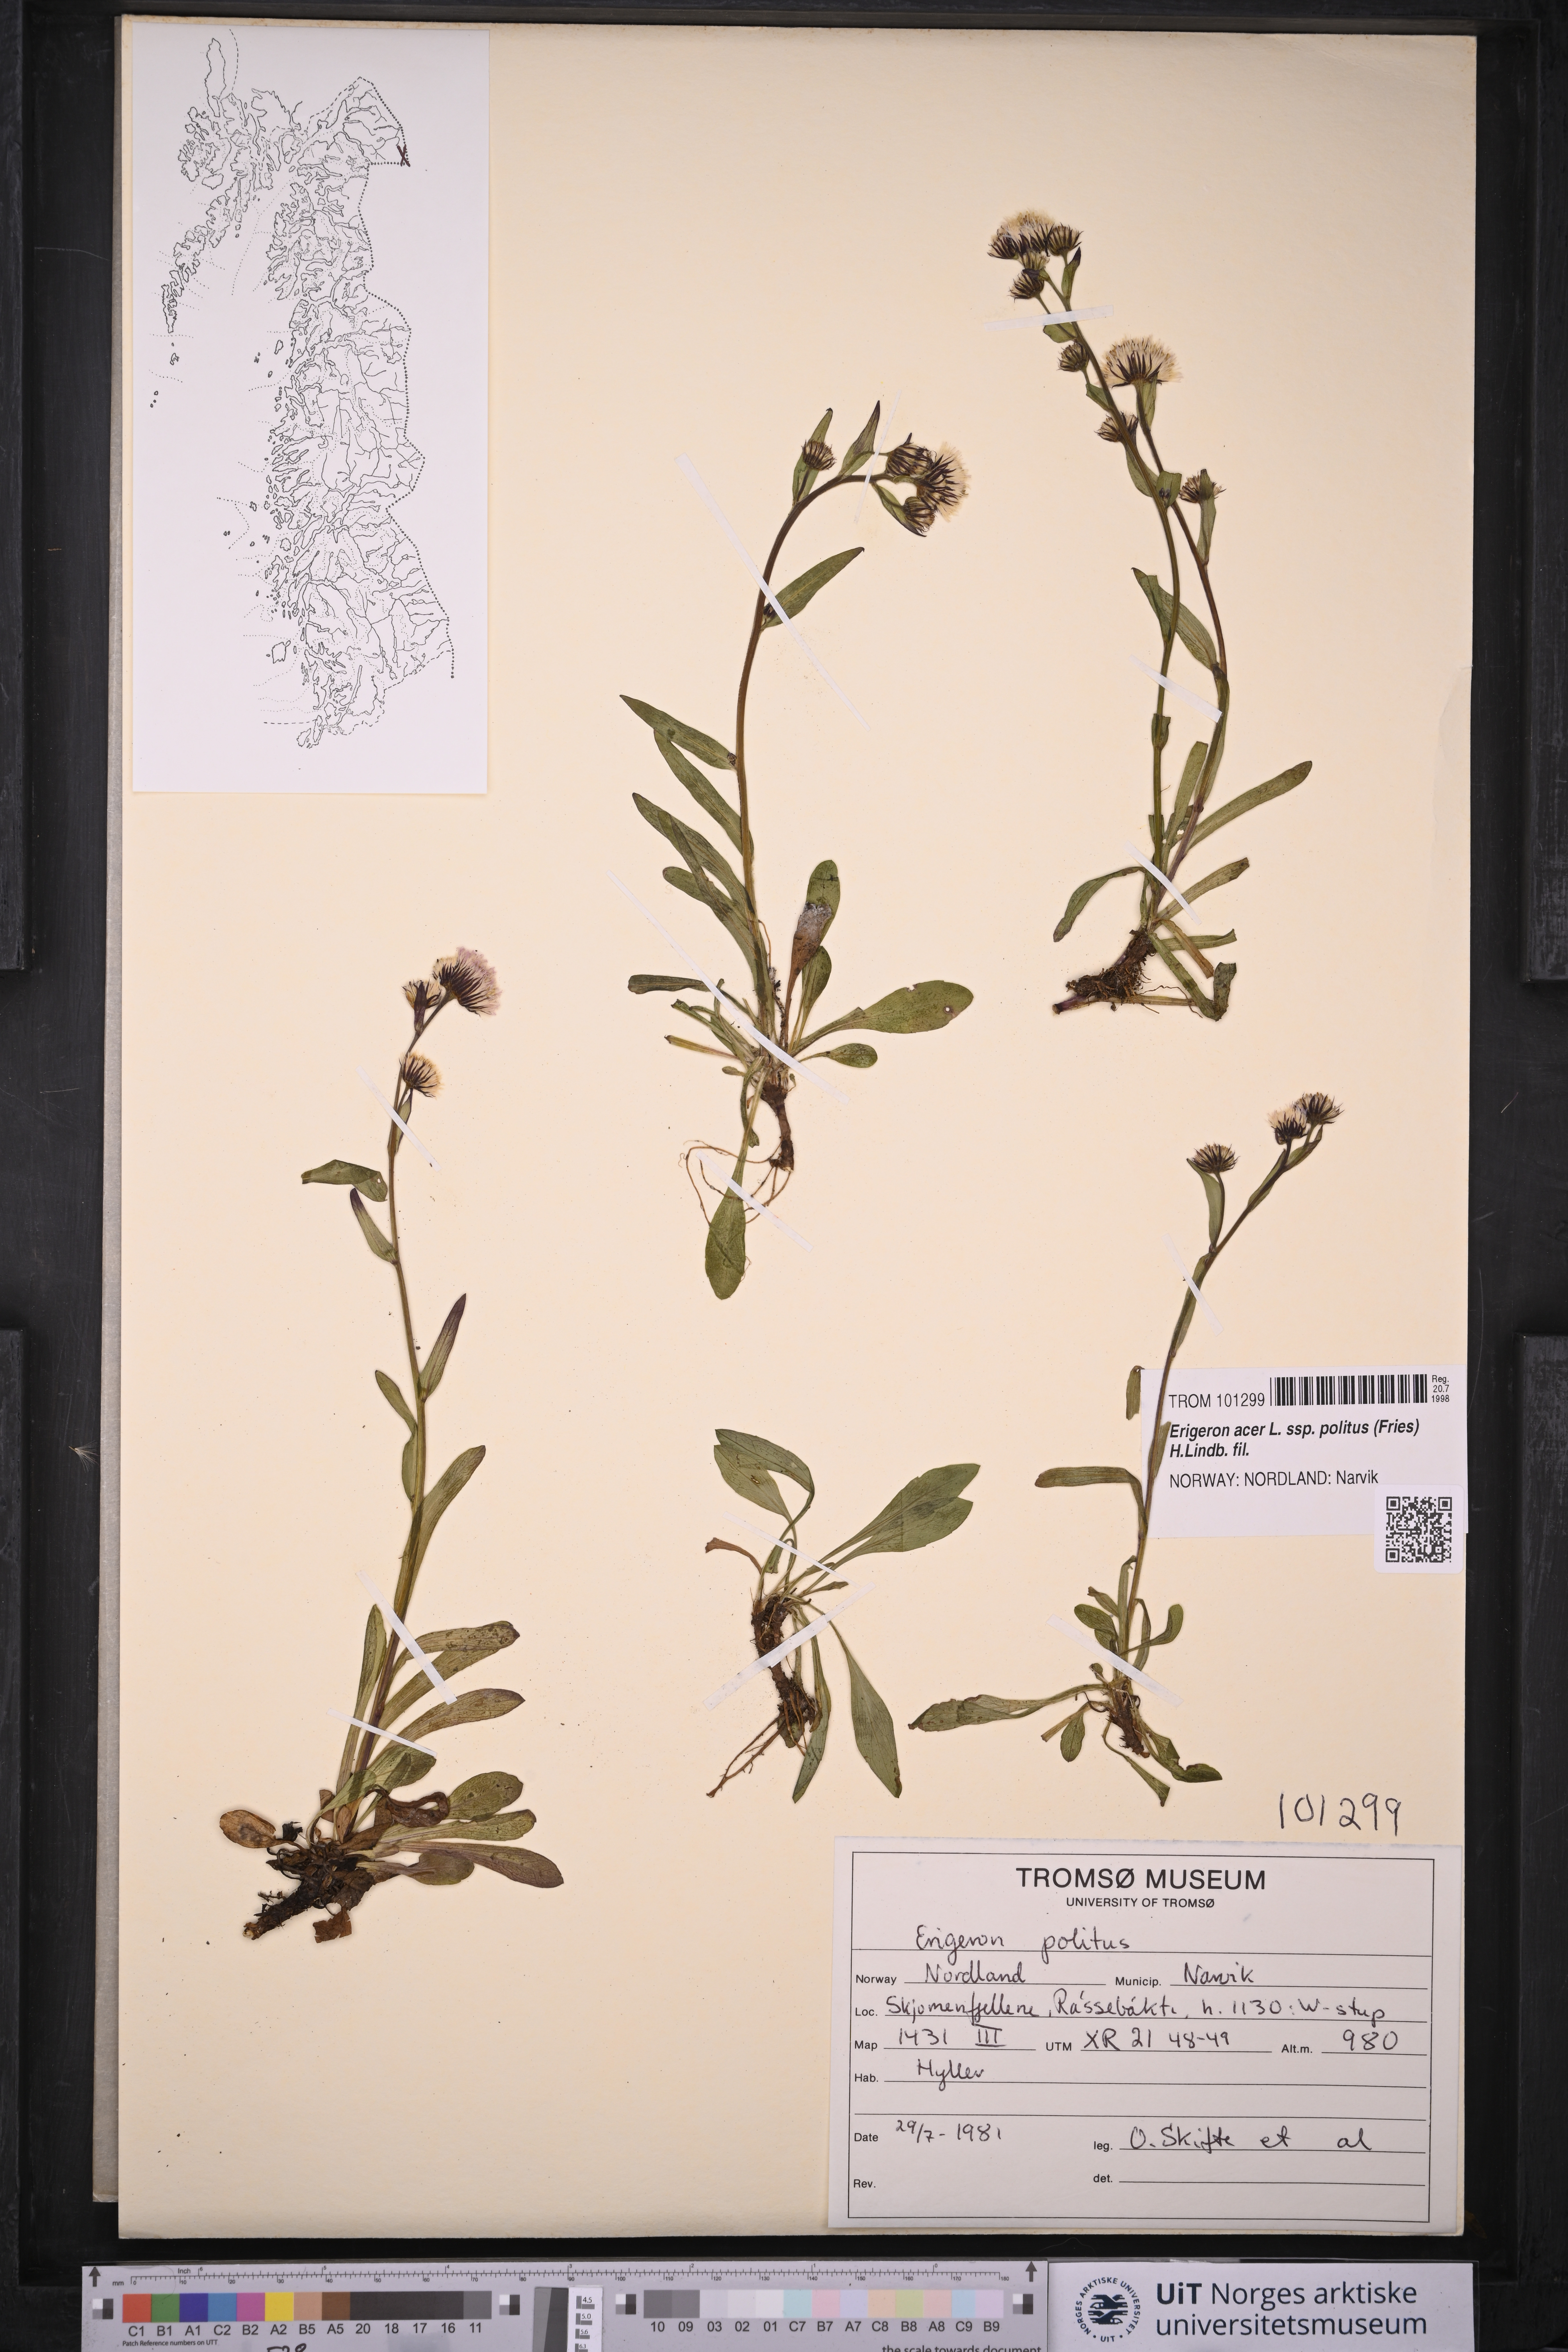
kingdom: Plantae
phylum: Tracheophyta
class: Magnoliopsida
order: Asterales
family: Asteraceae
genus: Erigeron
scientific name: Erigeron politus
